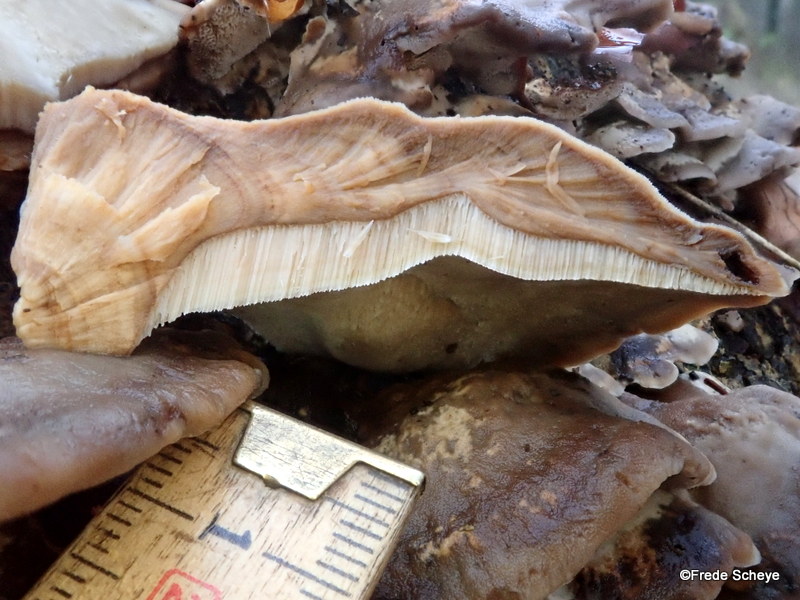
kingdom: Fungi
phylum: Basidiomycota
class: Agaricomycetes
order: Polyporales
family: Phanerochaetaceae
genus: Bjerkandera
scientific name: Bjerkandera fumosa
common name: grågul sodporesvamp
